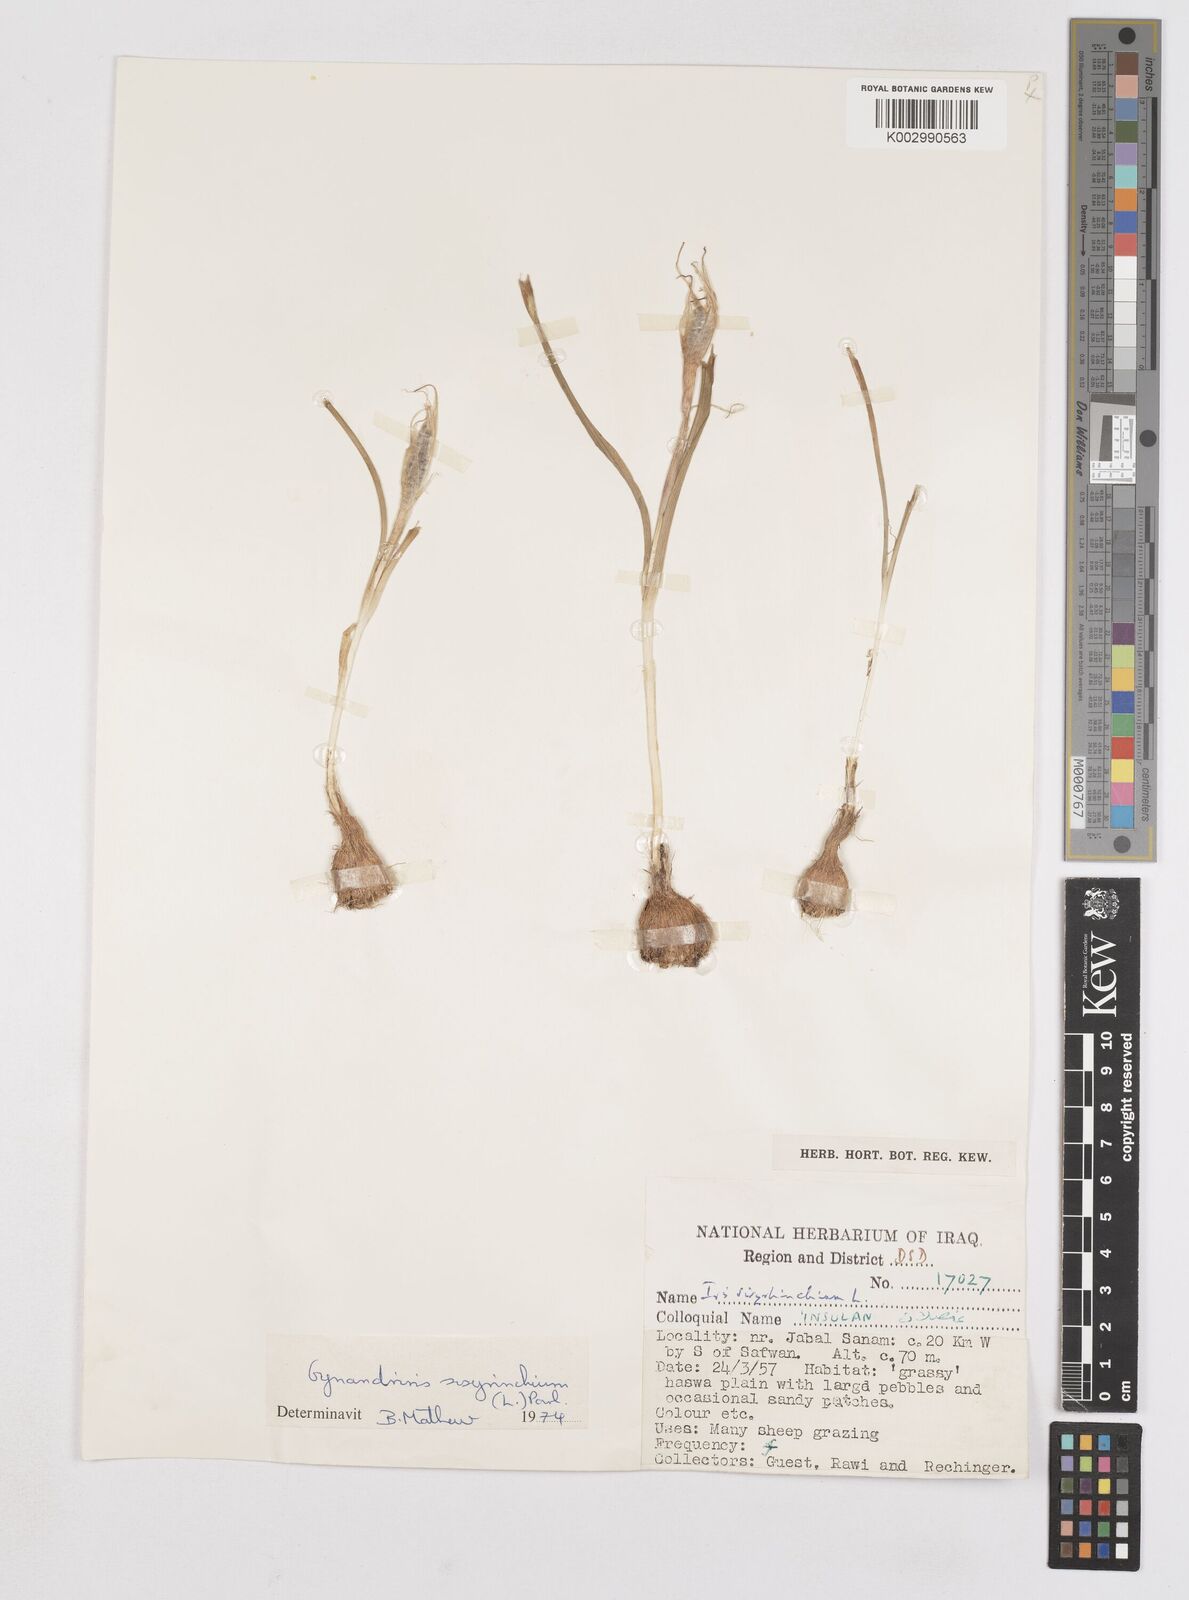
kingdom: Plantae
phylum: Tracheophyta
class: Liliopsida
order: Asparagales
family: Iridaceae
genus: Moraea
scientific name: Moraea sisyrinchium
